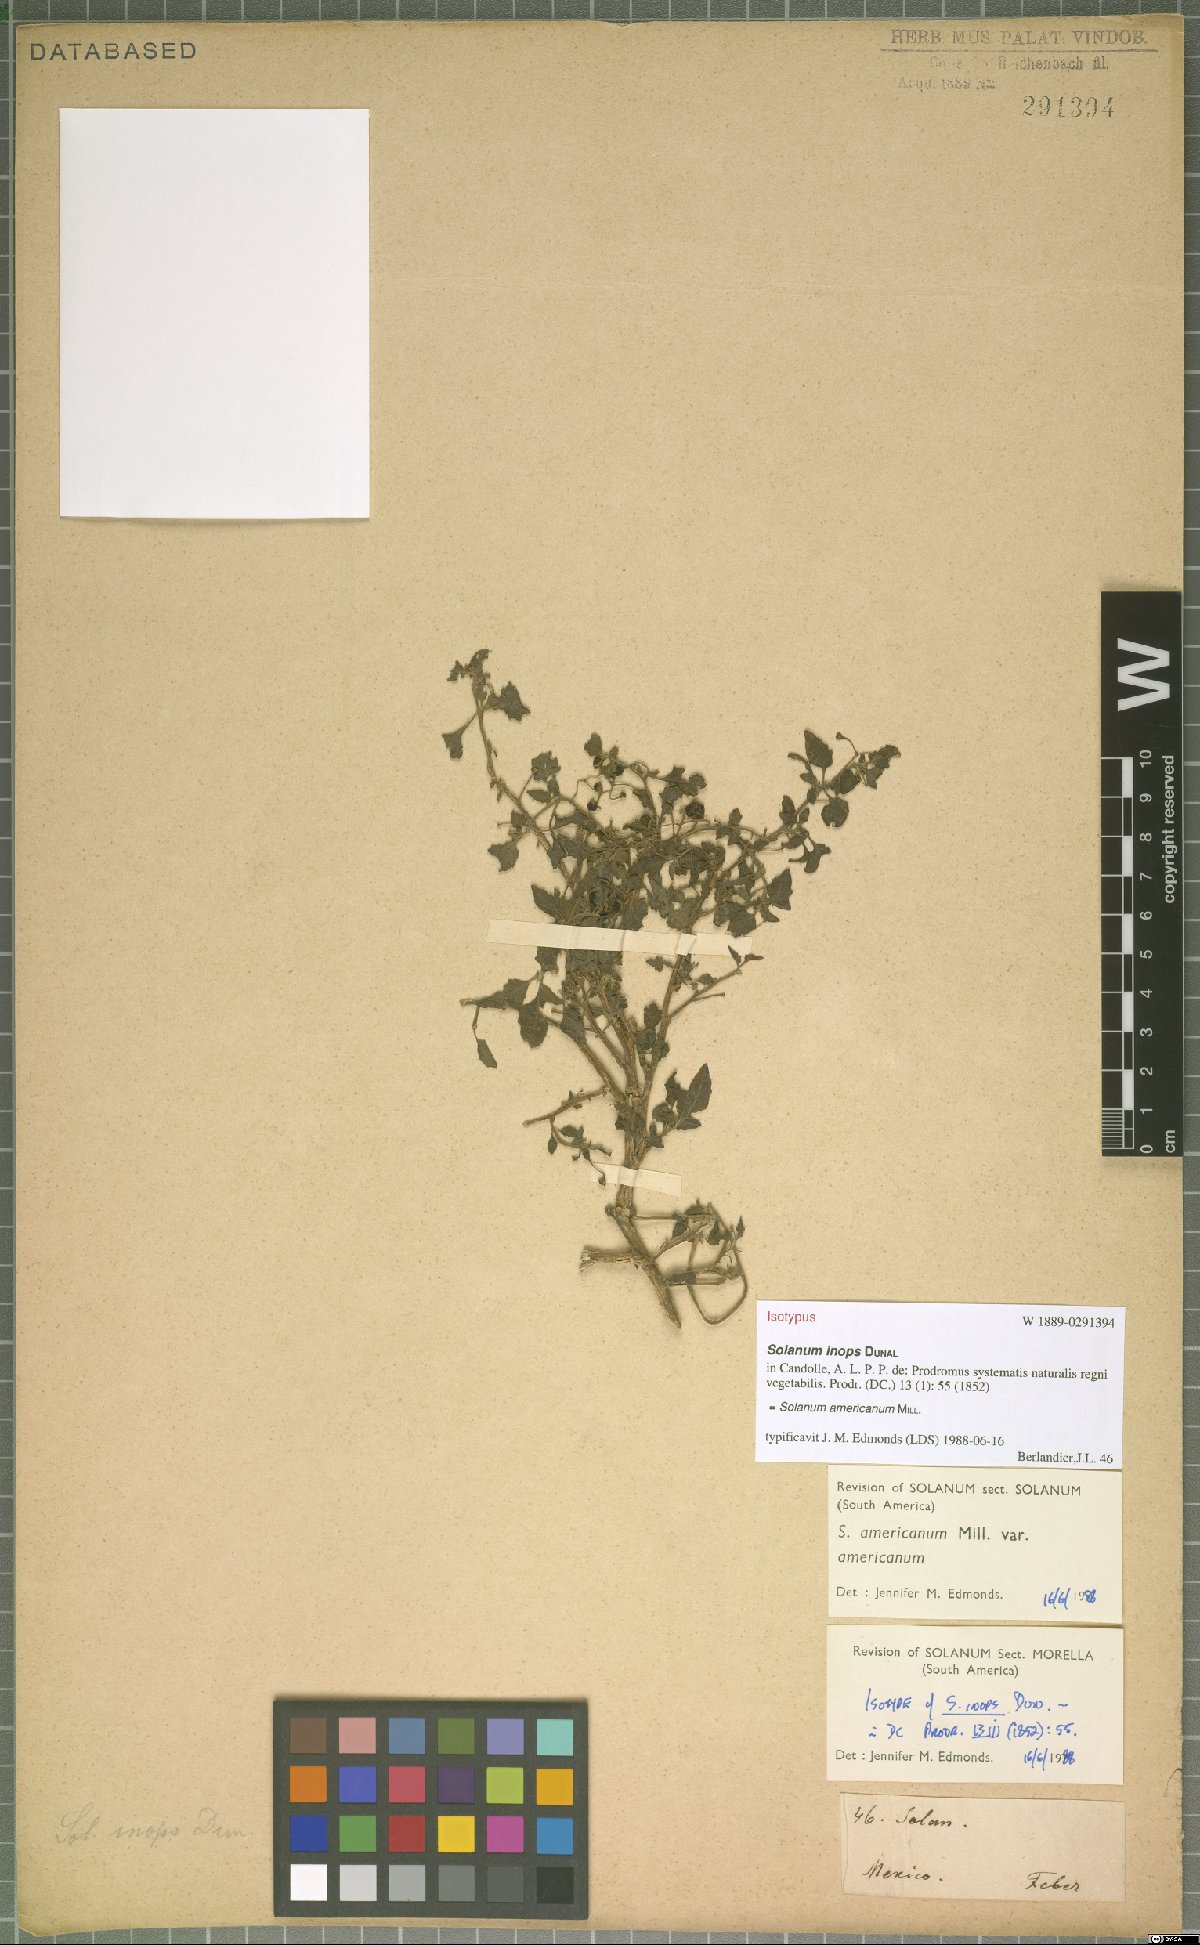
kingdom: Plantae
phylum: Tracheophyta
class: Magnoliopsida
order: Solanales
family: Solanaceae
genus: Solanum
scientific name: Solanum americanum
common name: American black nightshade
